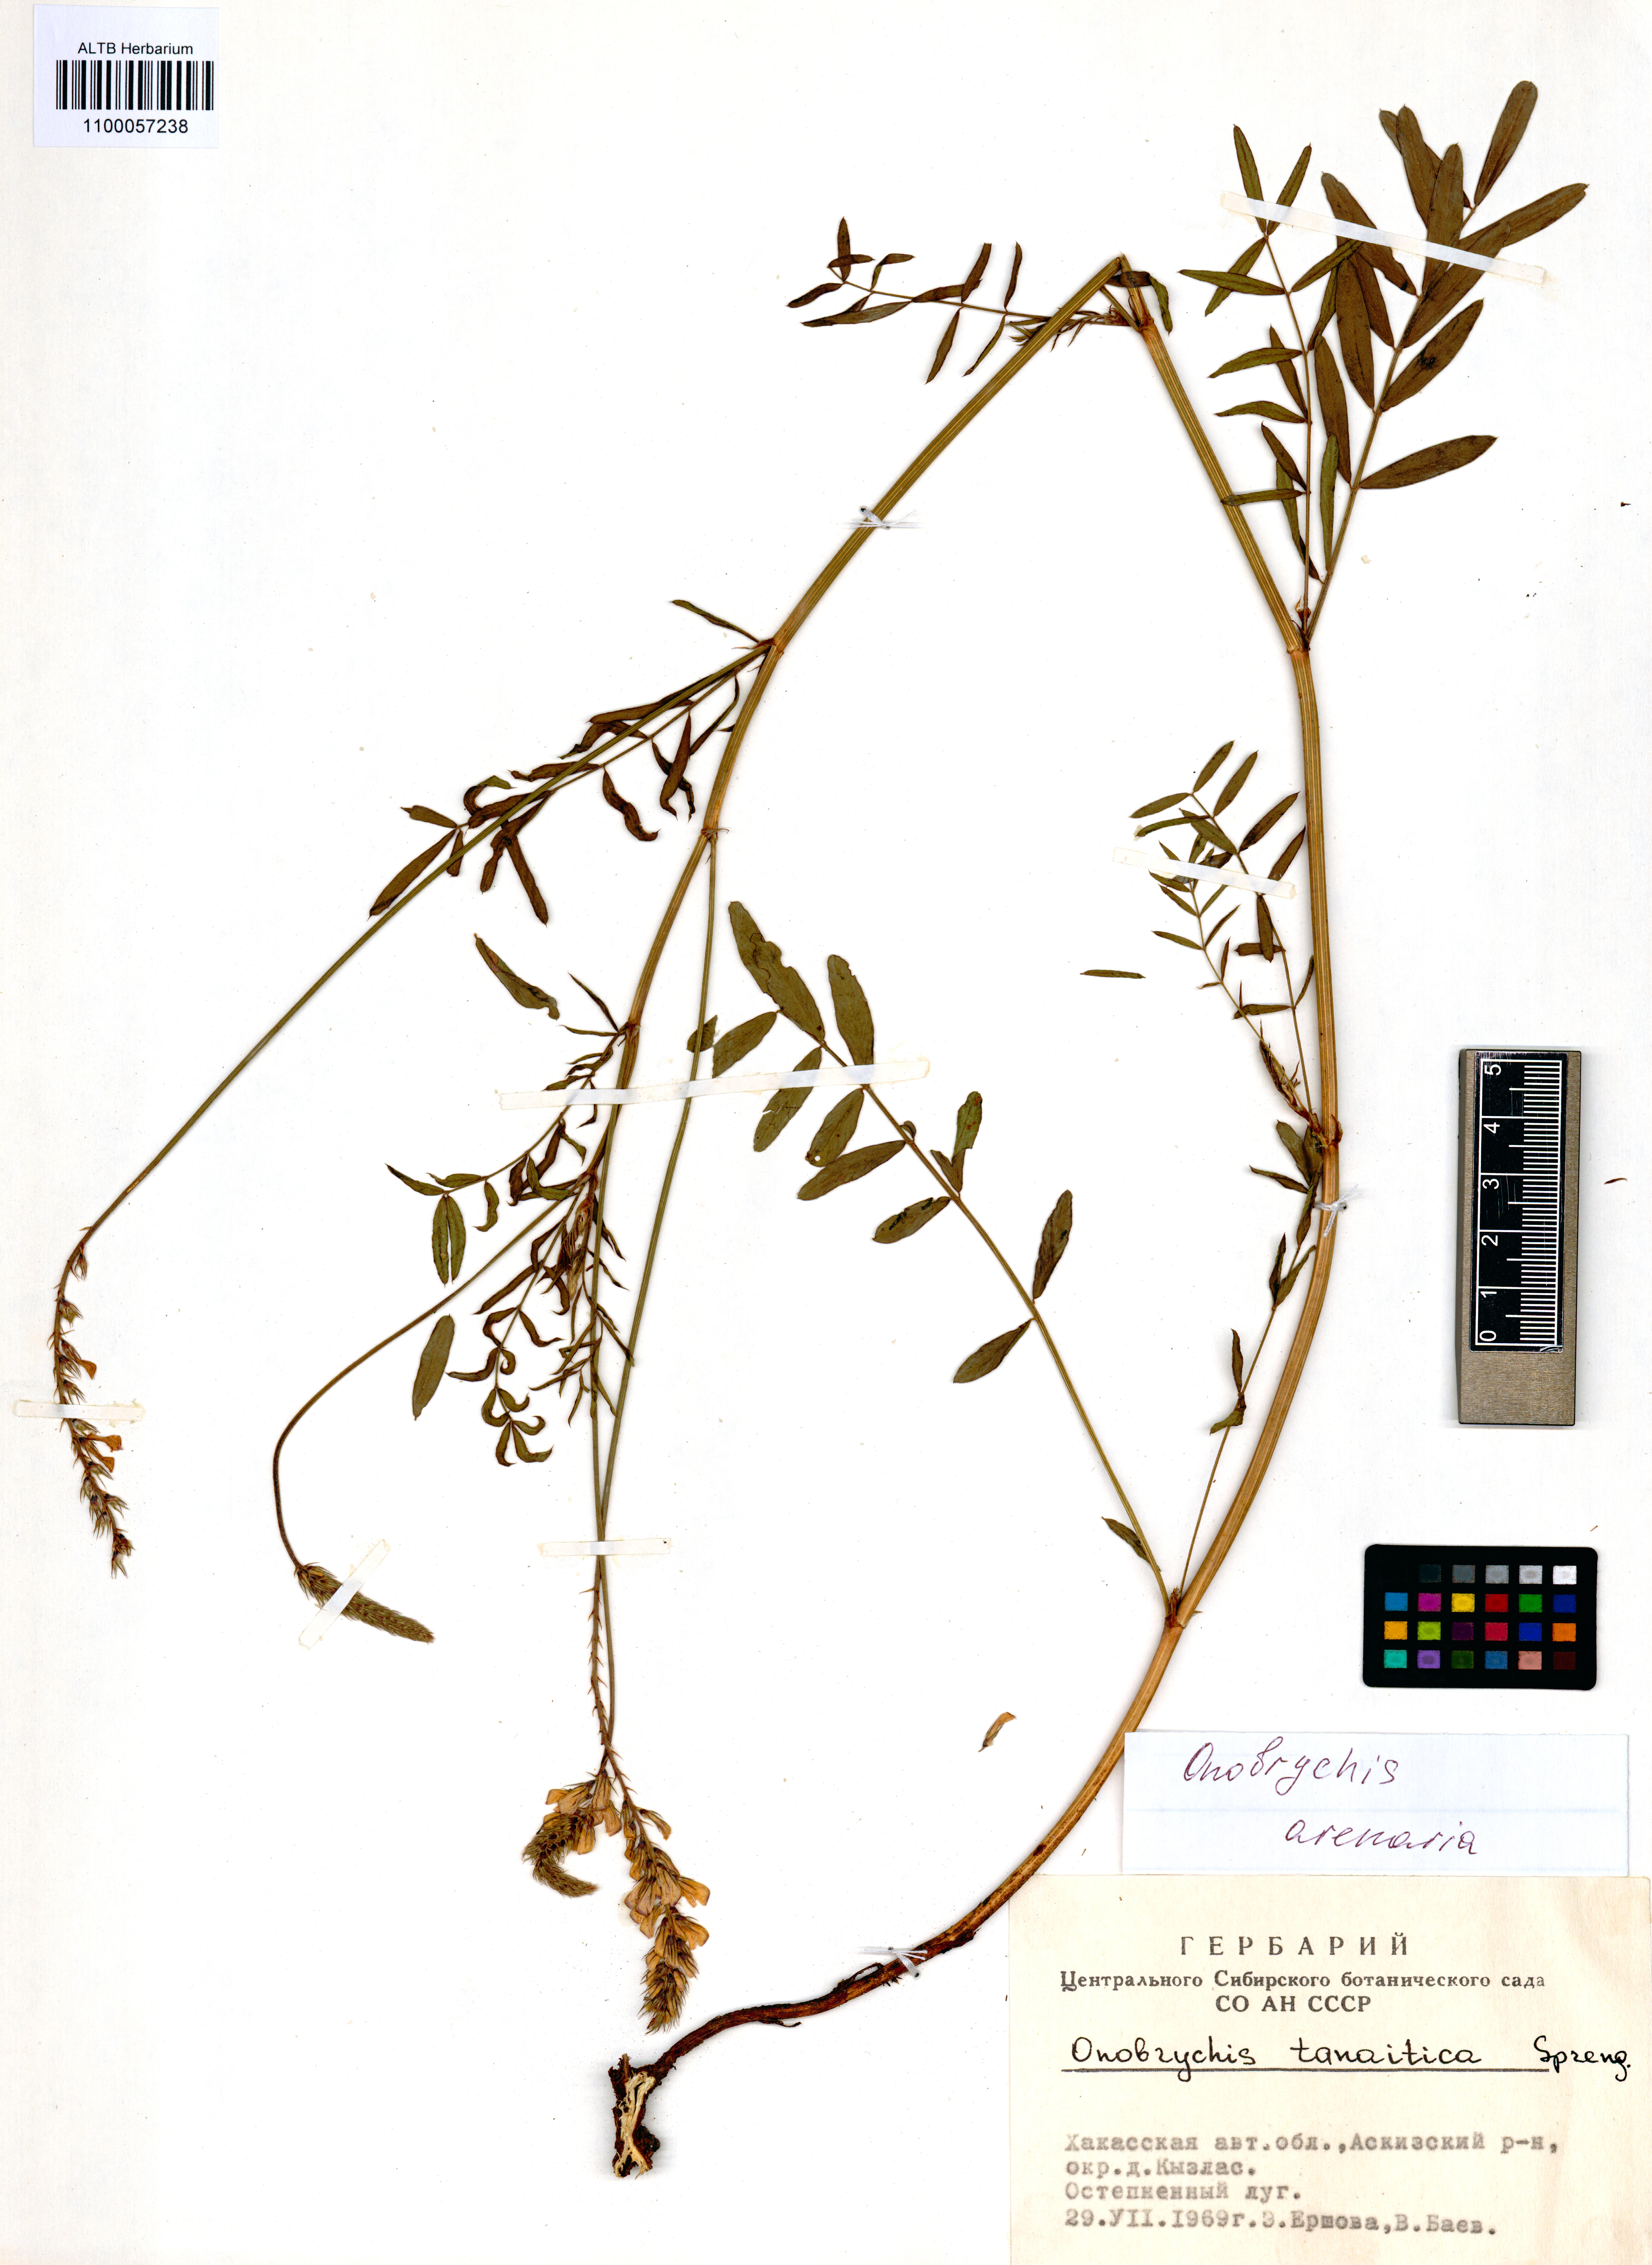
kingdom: Plantae
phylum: Tracheophyta
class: Magnoliopsida
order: Fabales
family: Fabaceae
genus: Onobrychis
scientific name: Onobrychis arenaria
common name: Sand esparcet
